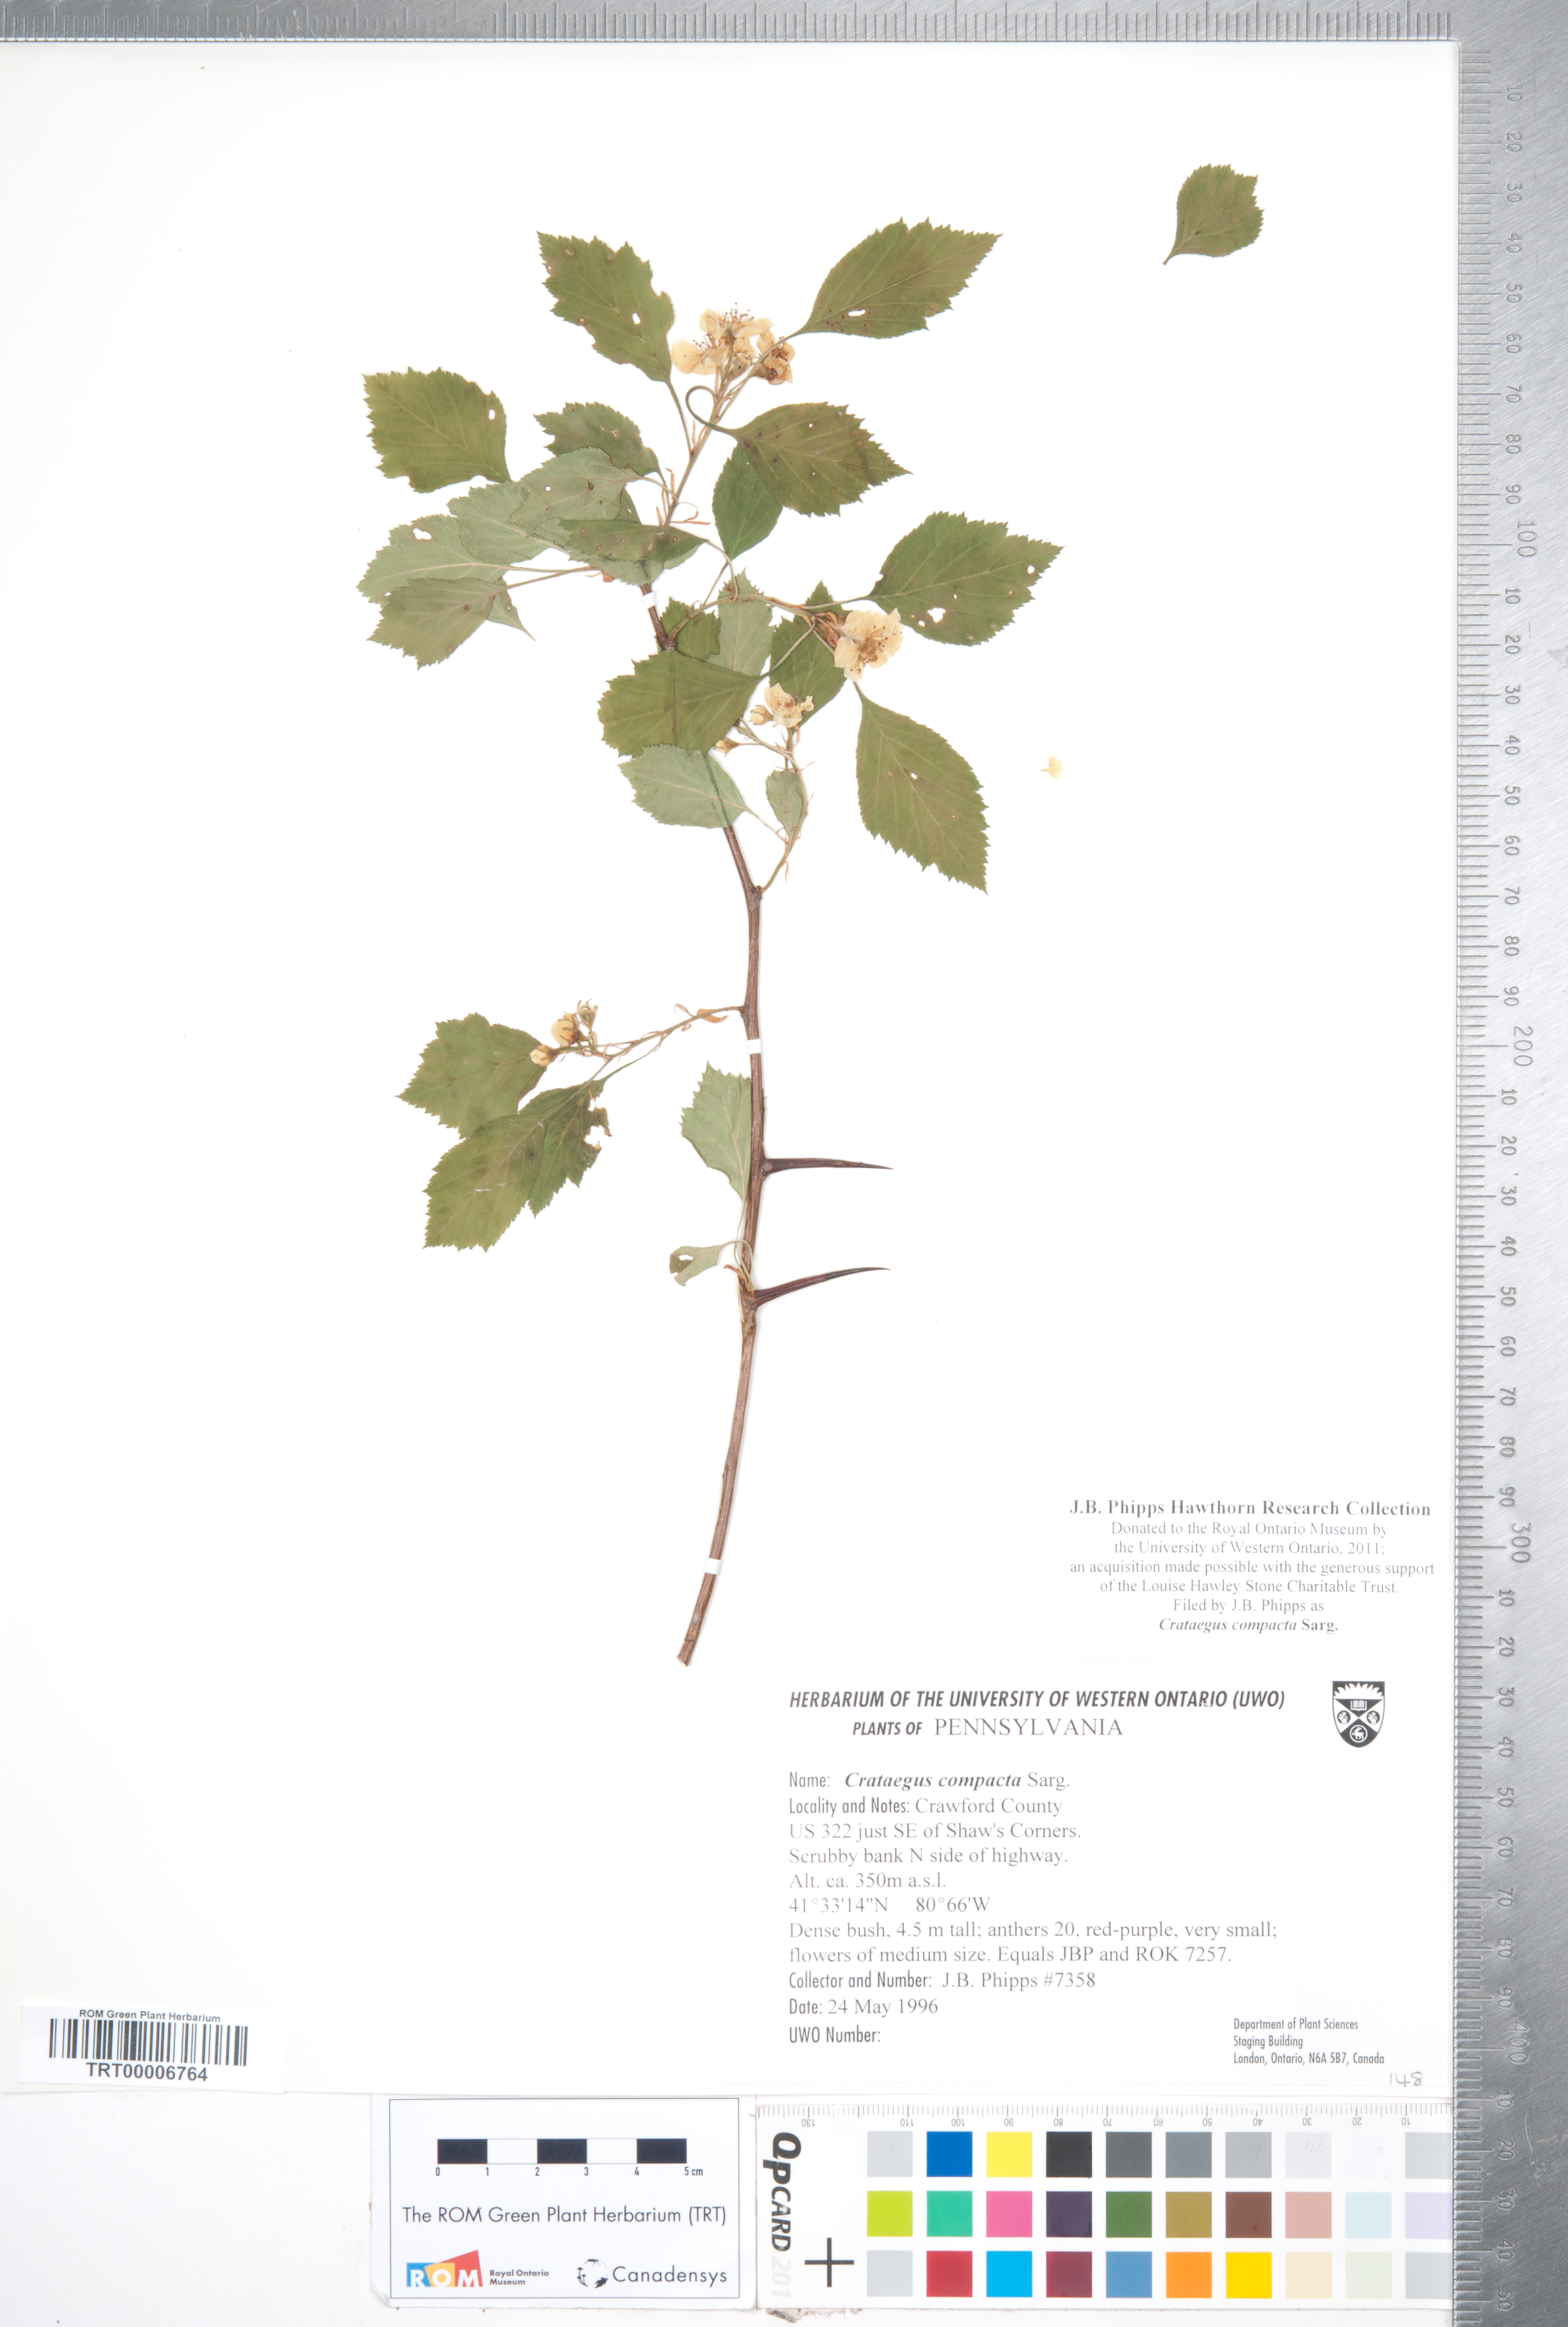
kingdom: Plantae
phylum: Tracheophyta
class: Magnoliopsida
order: Rosales
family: Rosaceae
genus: Crataegus
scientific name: Crataegus compacta
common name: Clustered hawthorn
